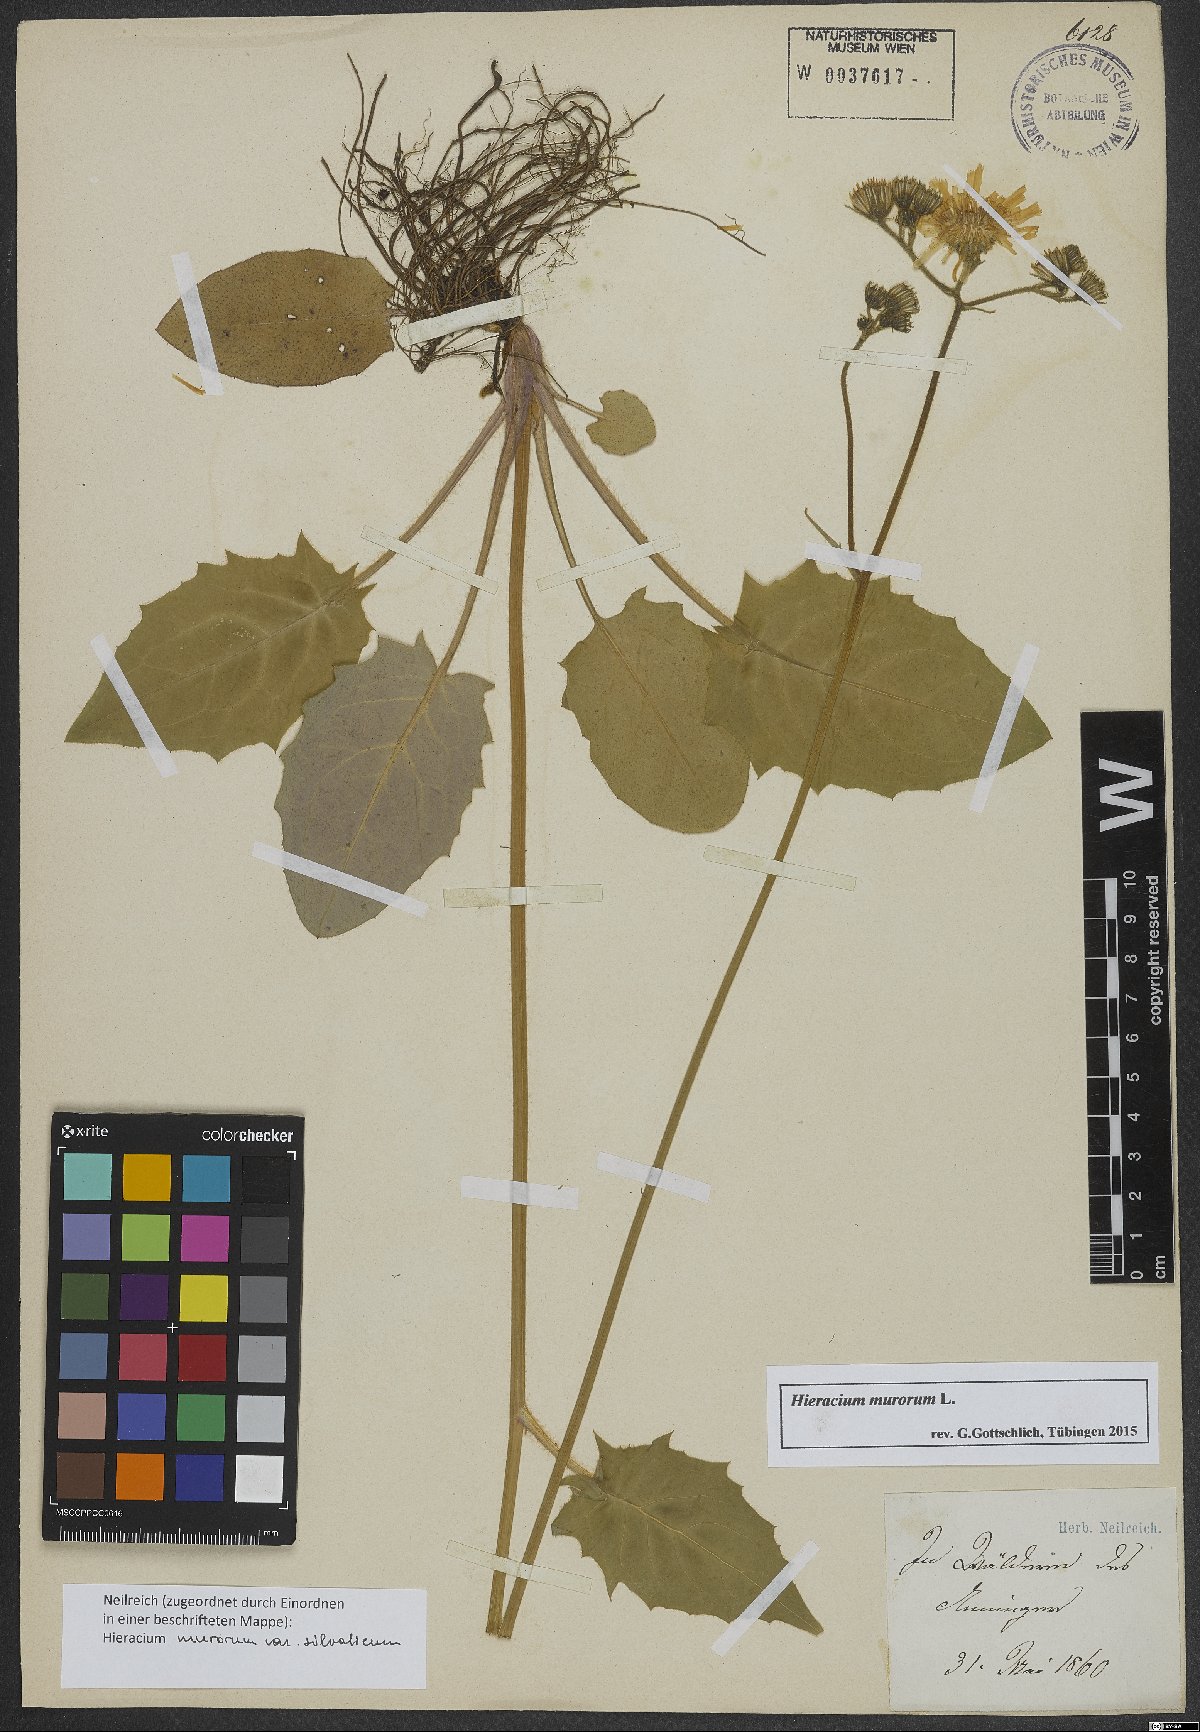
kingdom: Plantae
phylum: Tracheophyta
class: Magnoliopsida
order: Asterales
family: Asteraceae
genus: Hieracium
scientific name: Hieracium murorum
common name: Wall hawkweed
